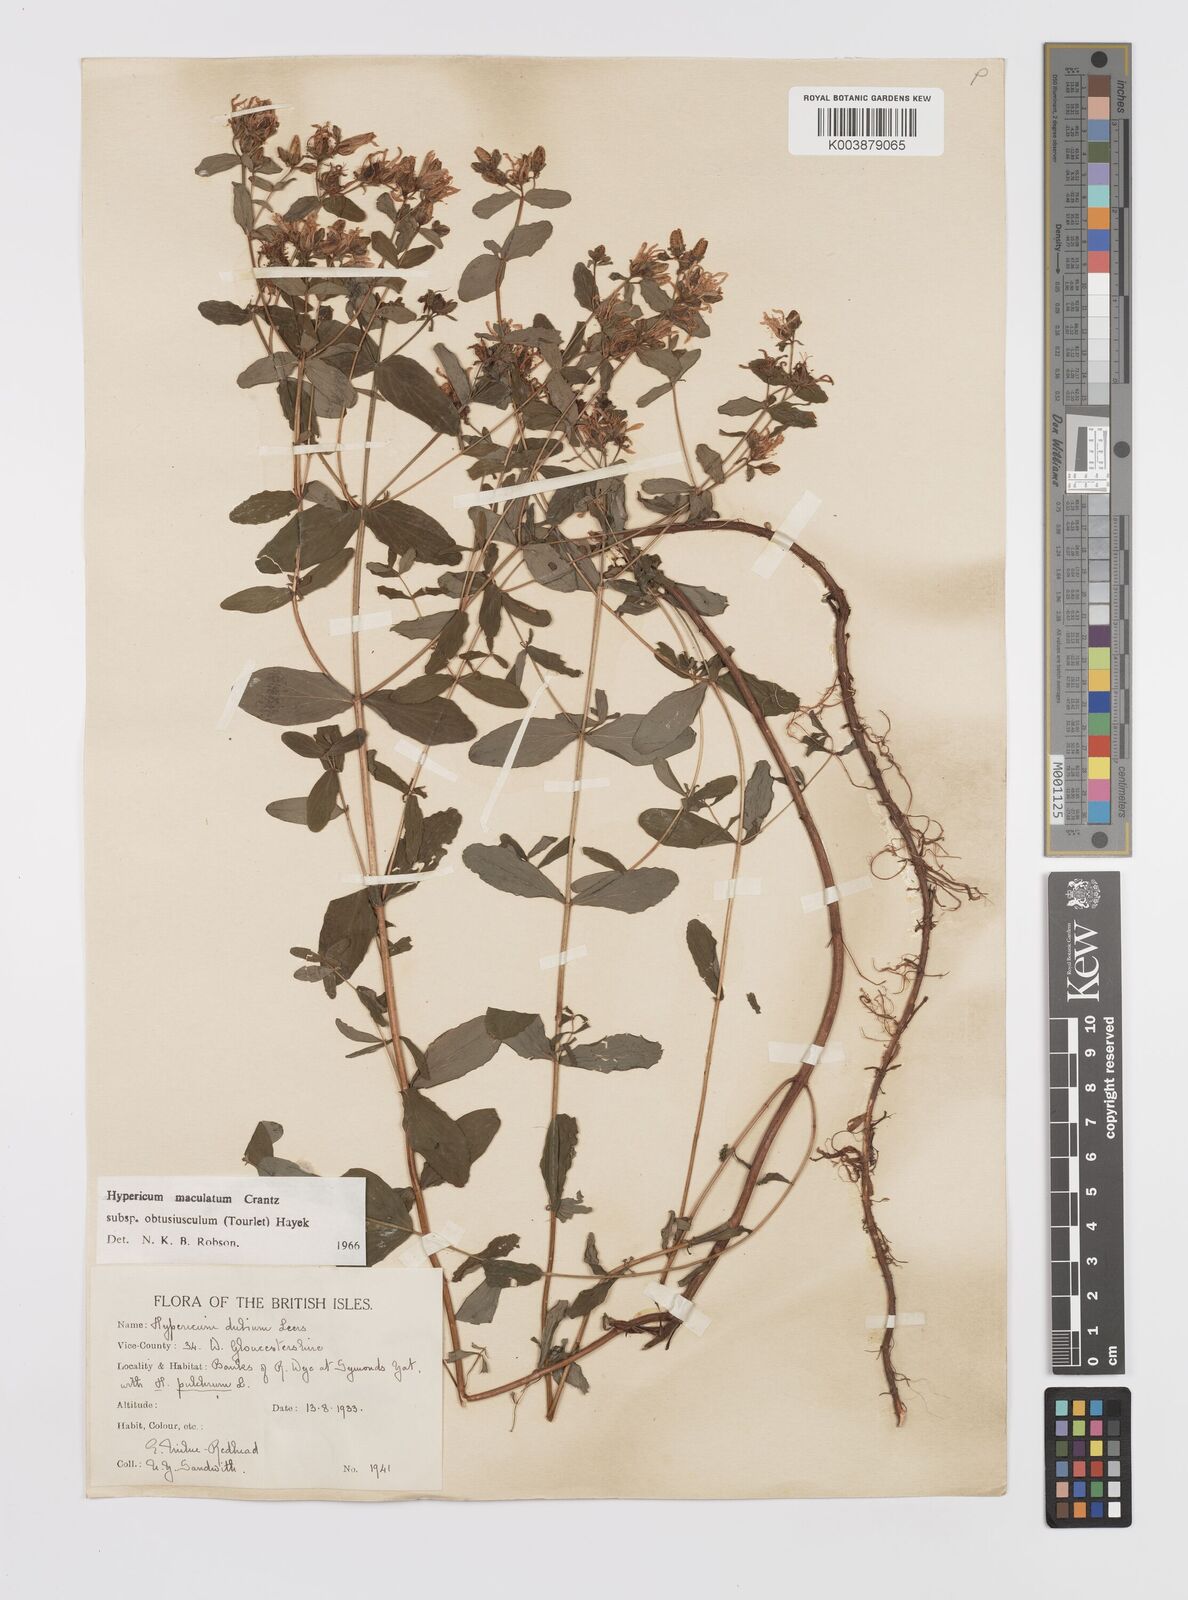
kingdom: Plantae
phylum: Tracheophyta
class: Magnoliopsida
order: Malpighiales
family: Hypericaceae
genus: Hypericum
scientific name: Hypericum dubium
